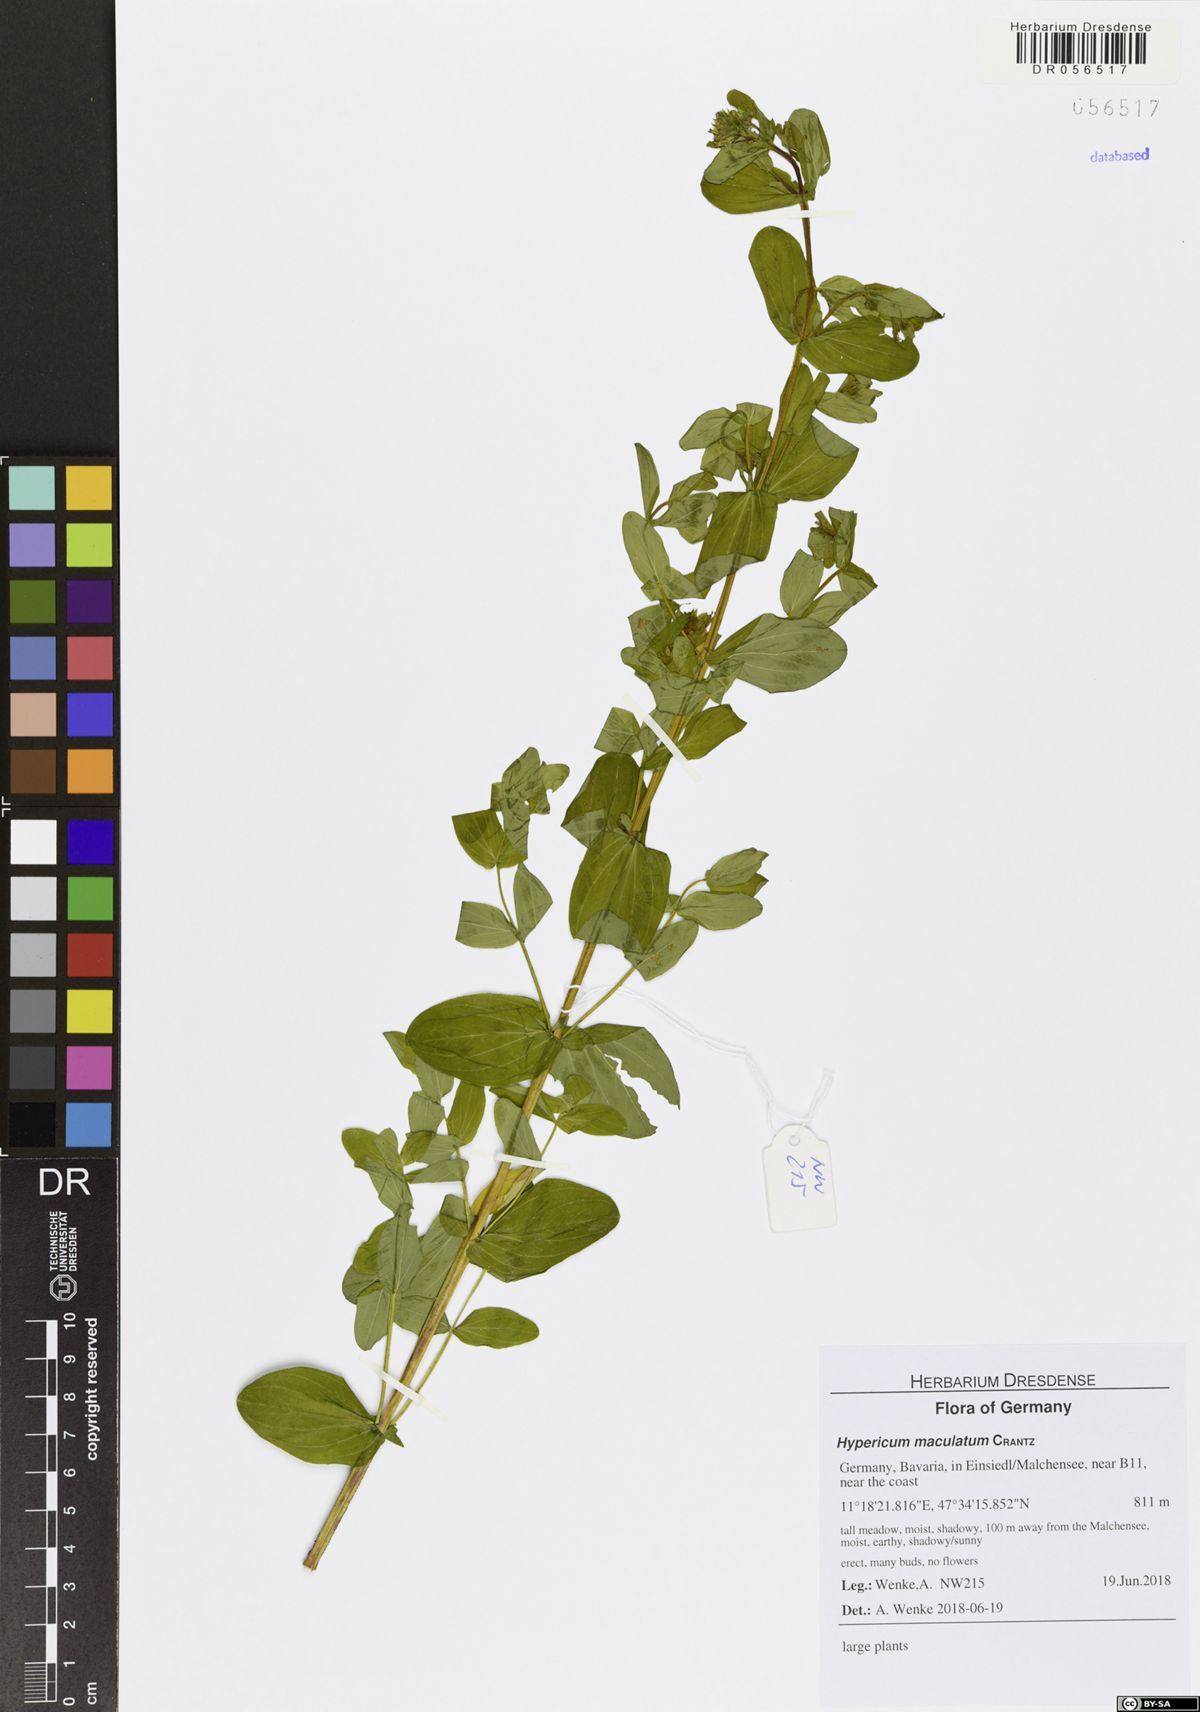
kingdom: Plantae
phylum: Tracheophyta
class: Magnoliopsida
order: Malpighiales
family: Hypericaceae
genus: Hypericum
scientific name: Hypericum maculatum
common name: Imperforate st. john's-wort
